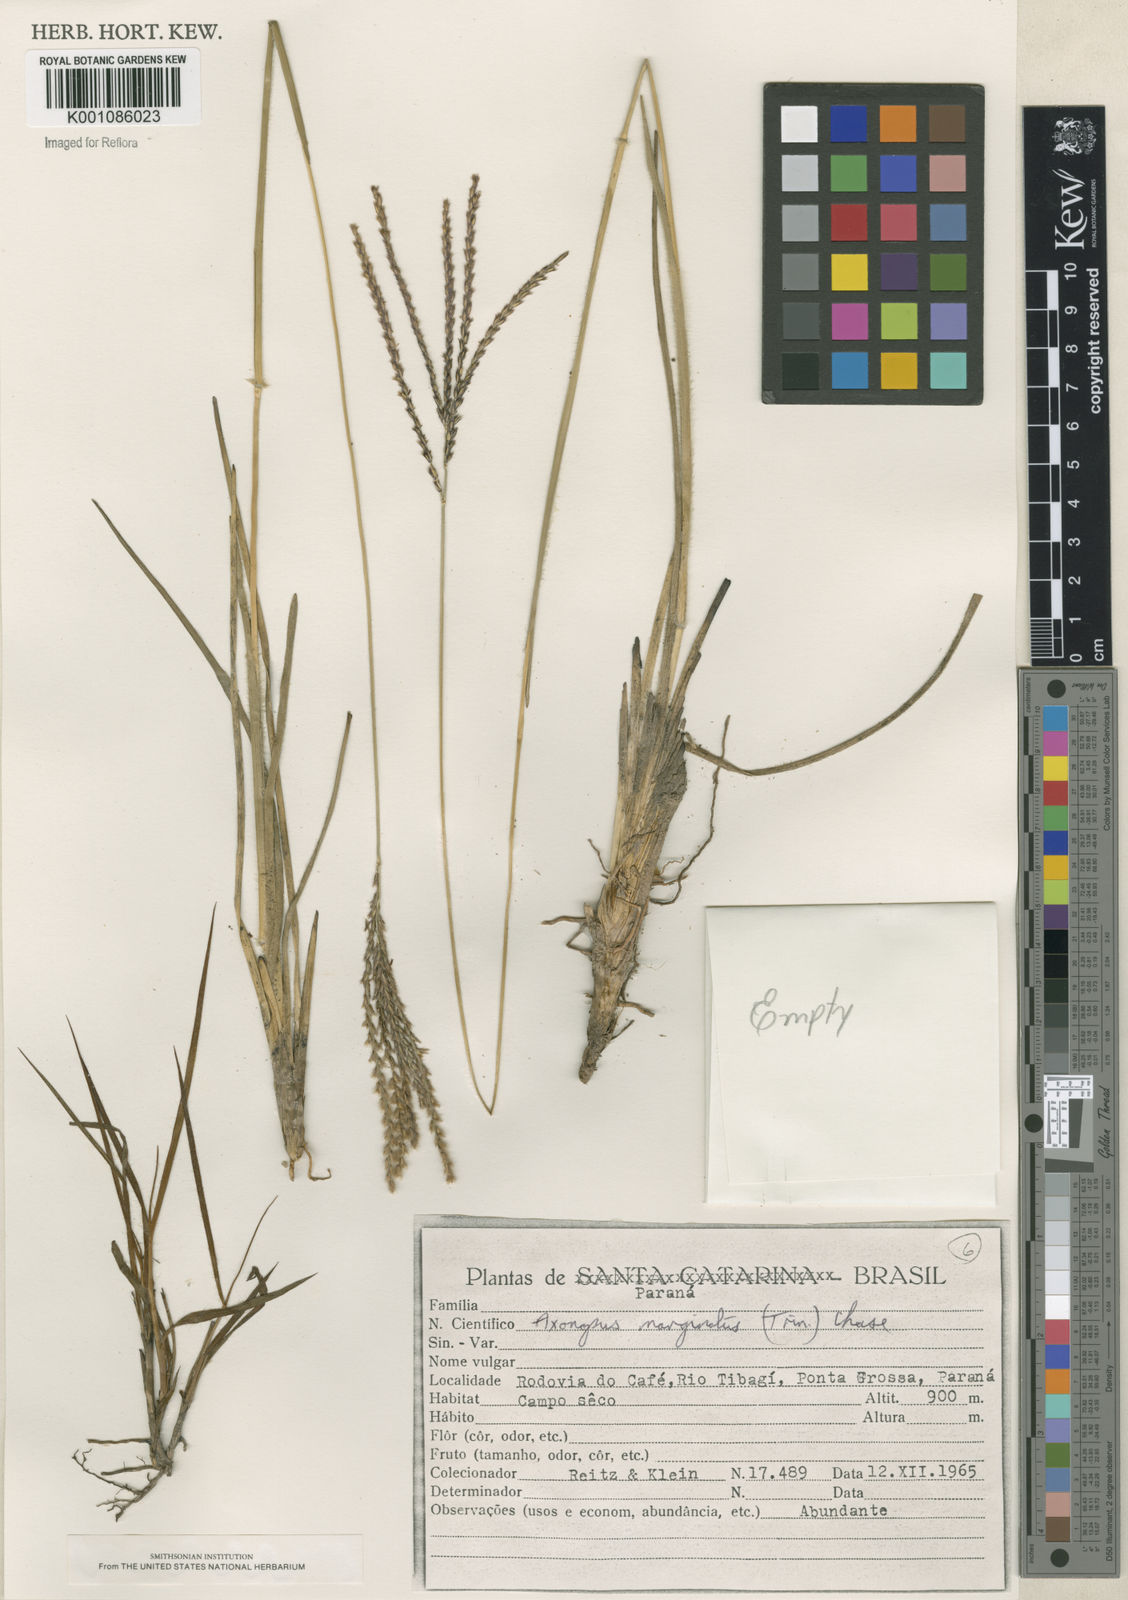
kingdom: Plantae
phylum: Tracheophyta
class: Liliopsida
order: Poales
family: Poaceae
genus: Axonopus
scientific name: Axonopus
